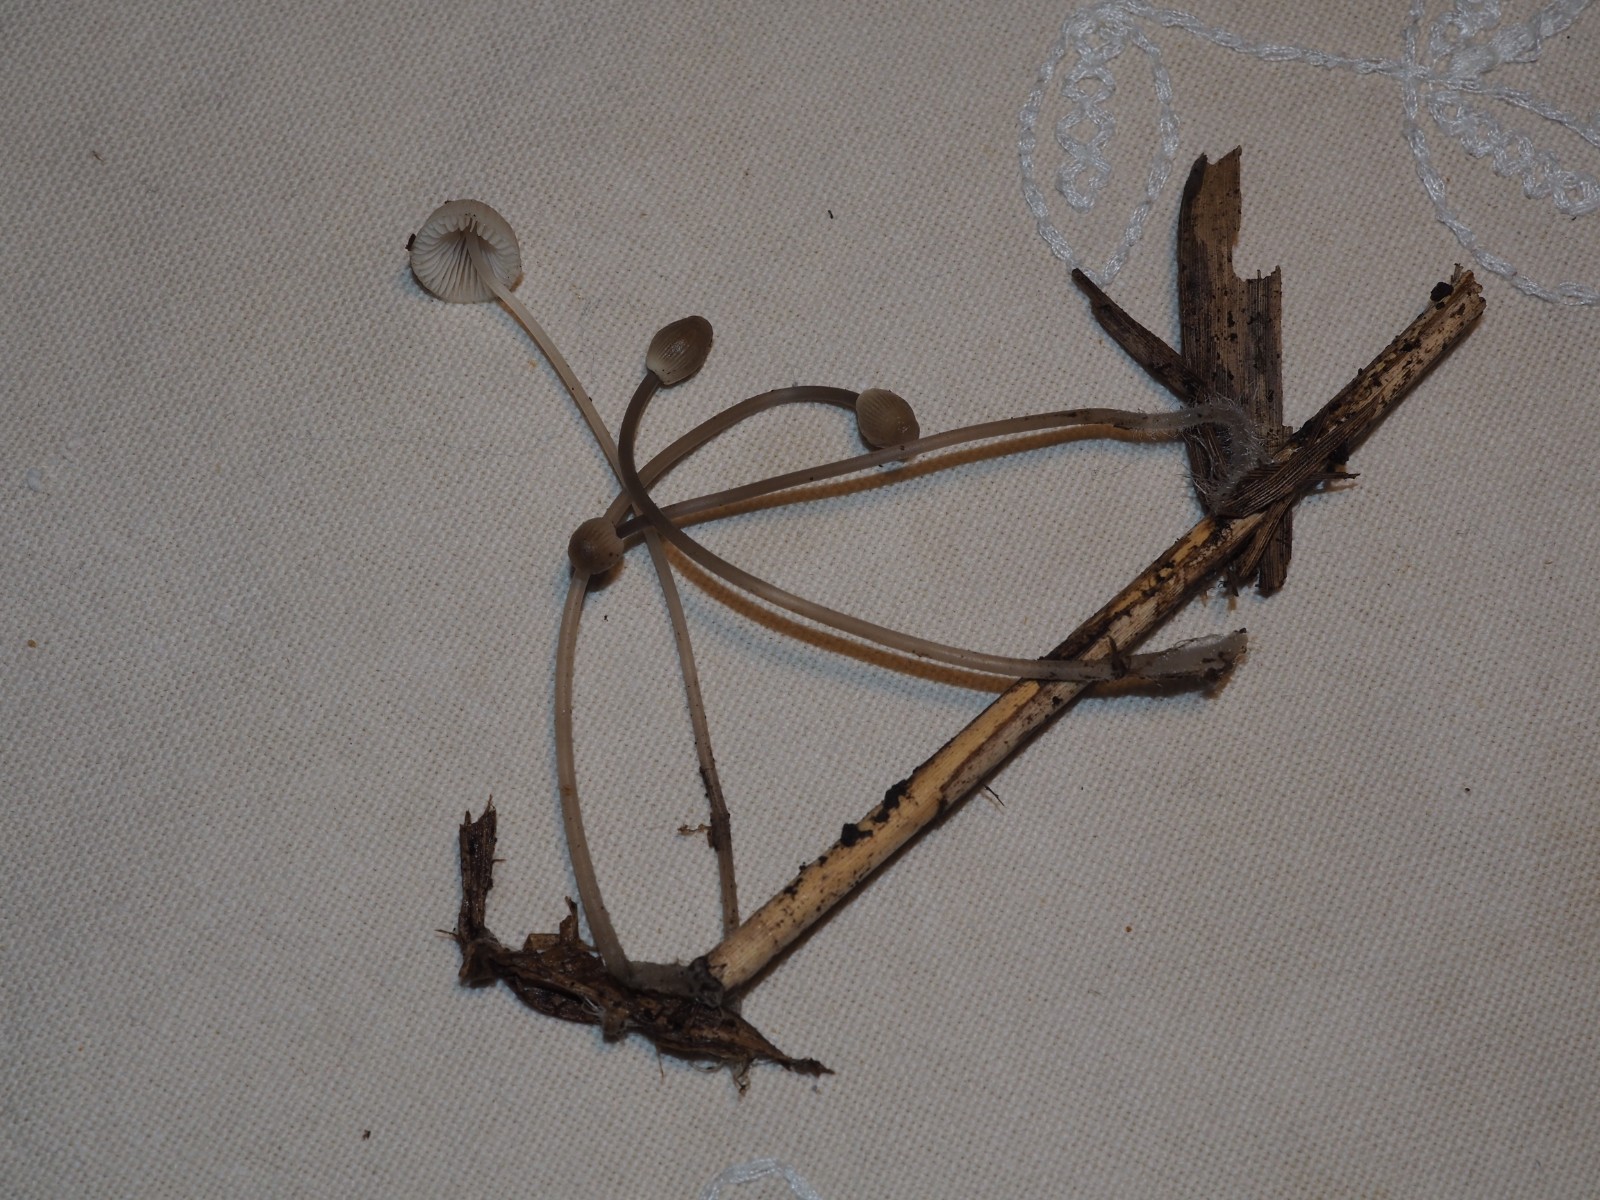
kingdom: Fungi
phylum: Basidiomycota
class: Agaricomycetes
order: Agaricales
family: Mycenaceae
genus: Mycena
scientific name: Mycena arcangeliana
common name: oliven-huesvamp
